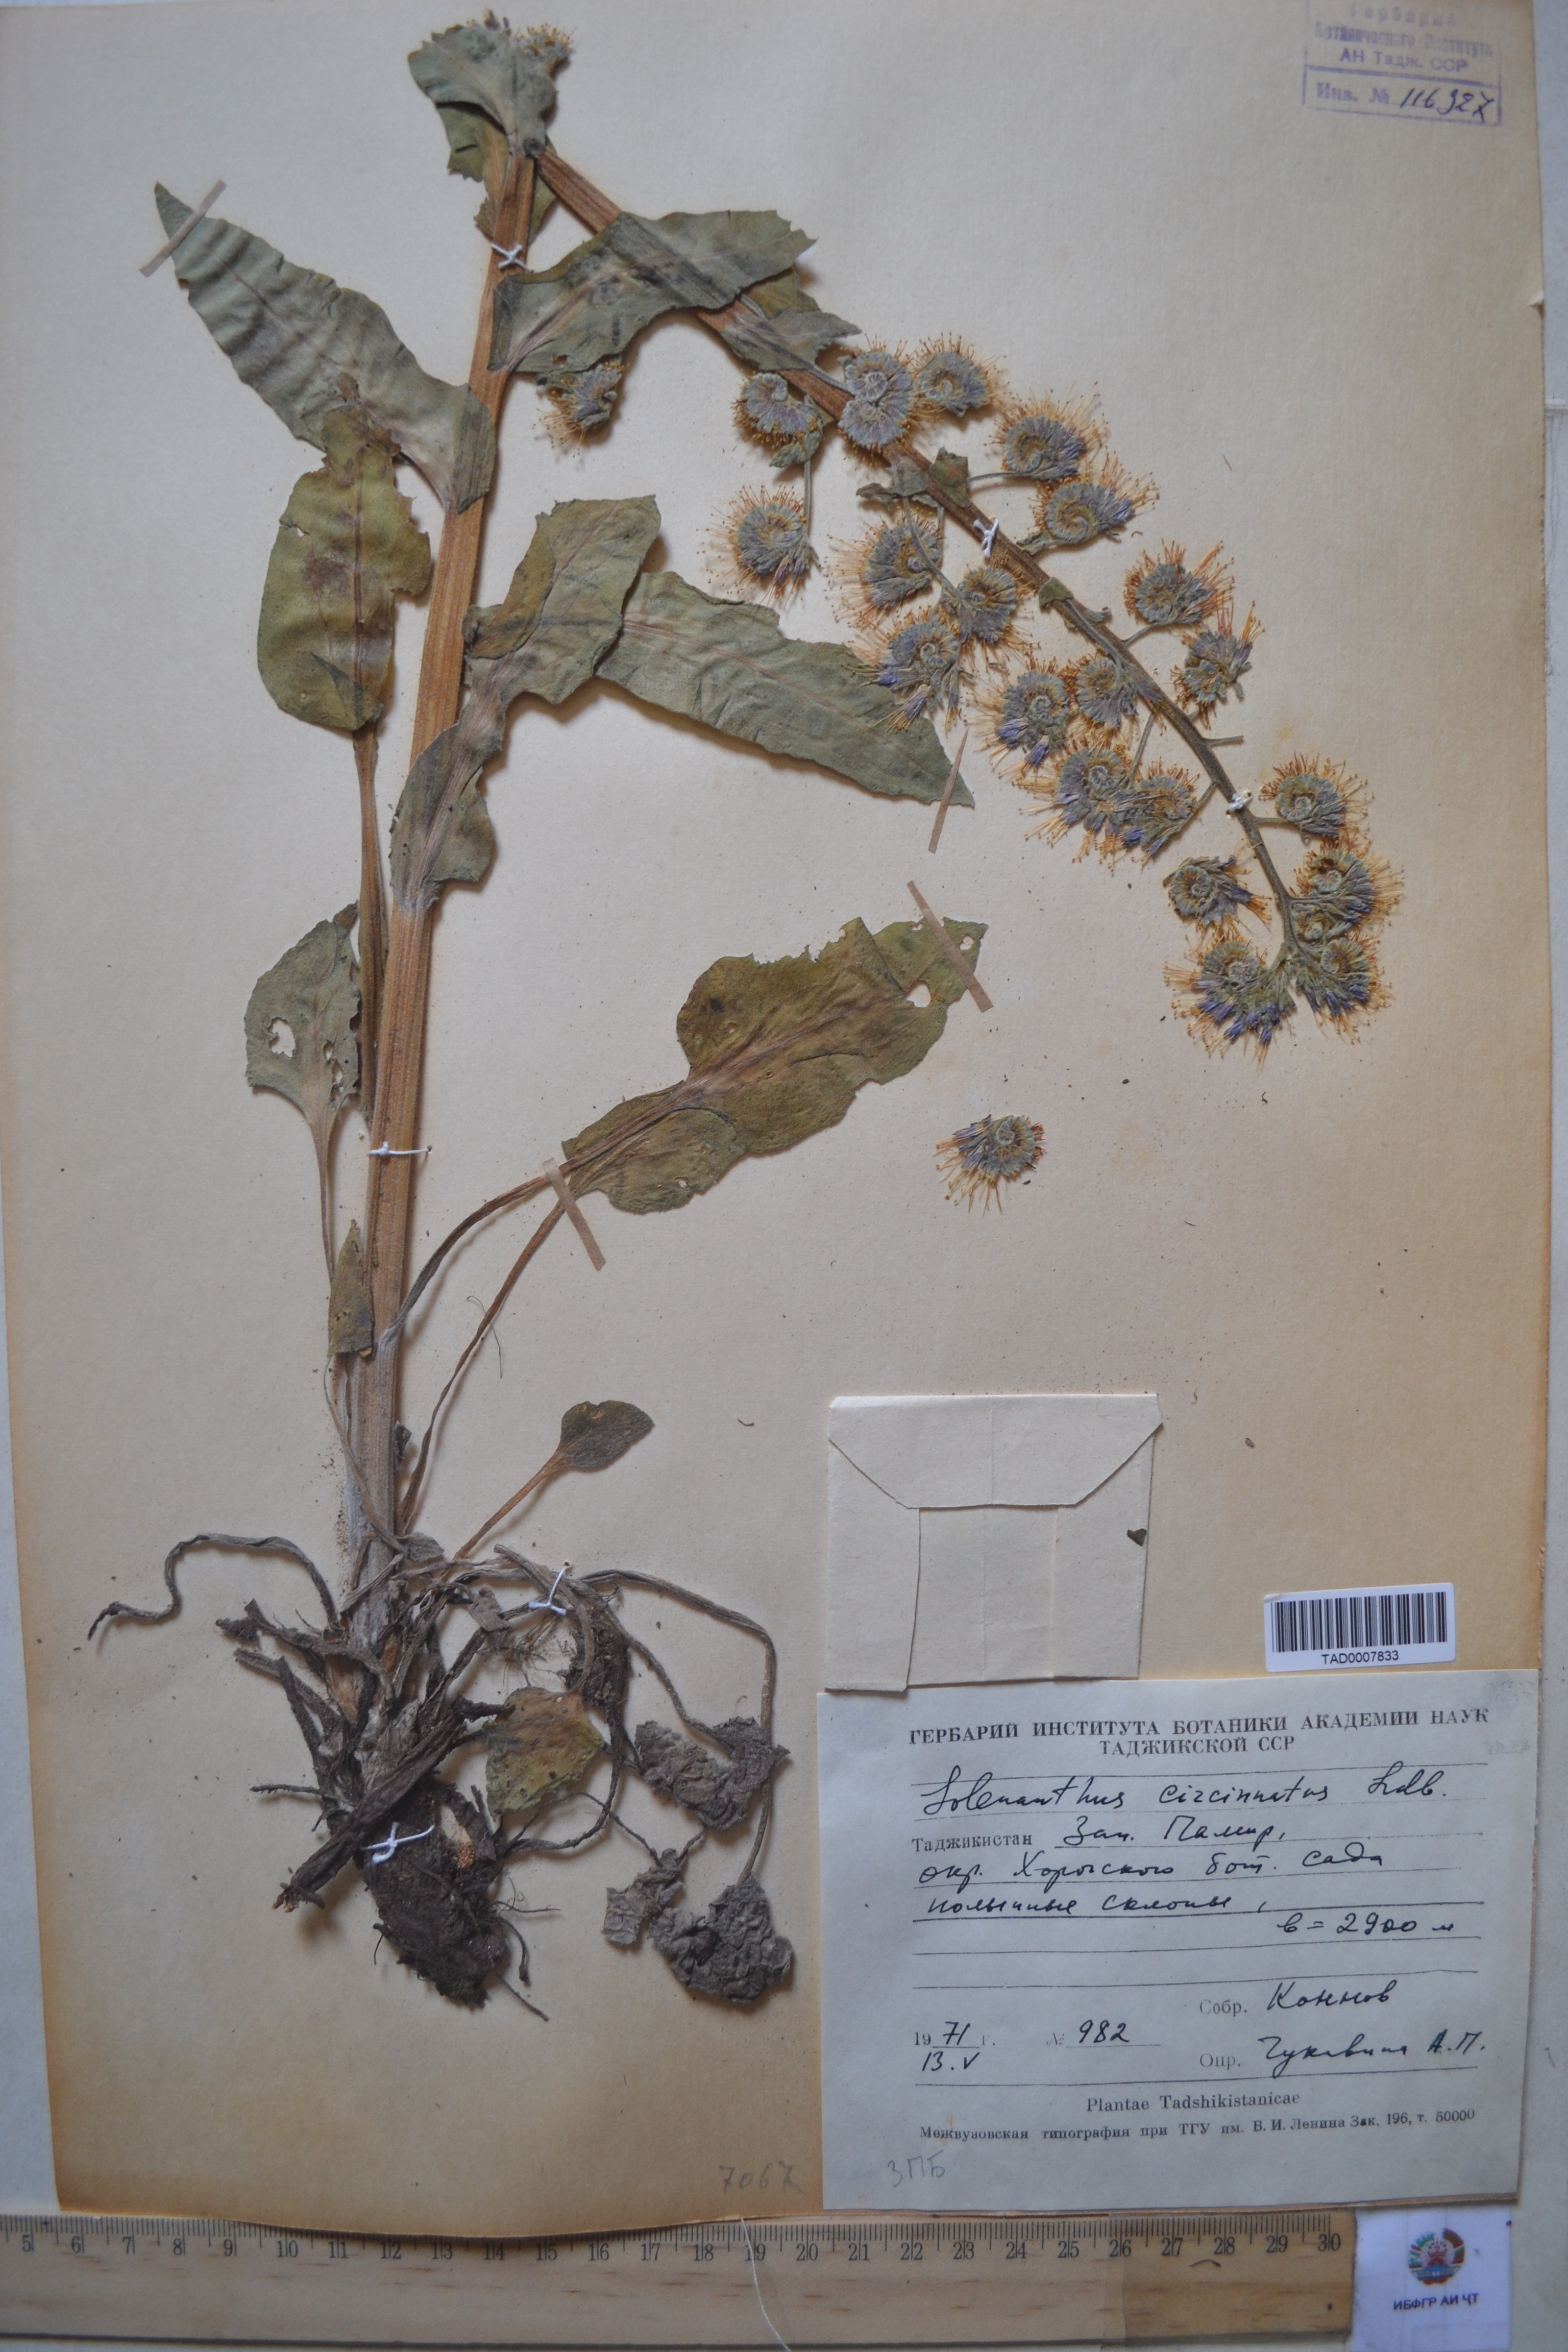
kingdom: Plantae
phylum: Tracheophyta
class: Magnoliopsida
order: Boraginales
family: Boraginaceae
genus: Solenanthus
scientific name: Solenanthus circinnatus
